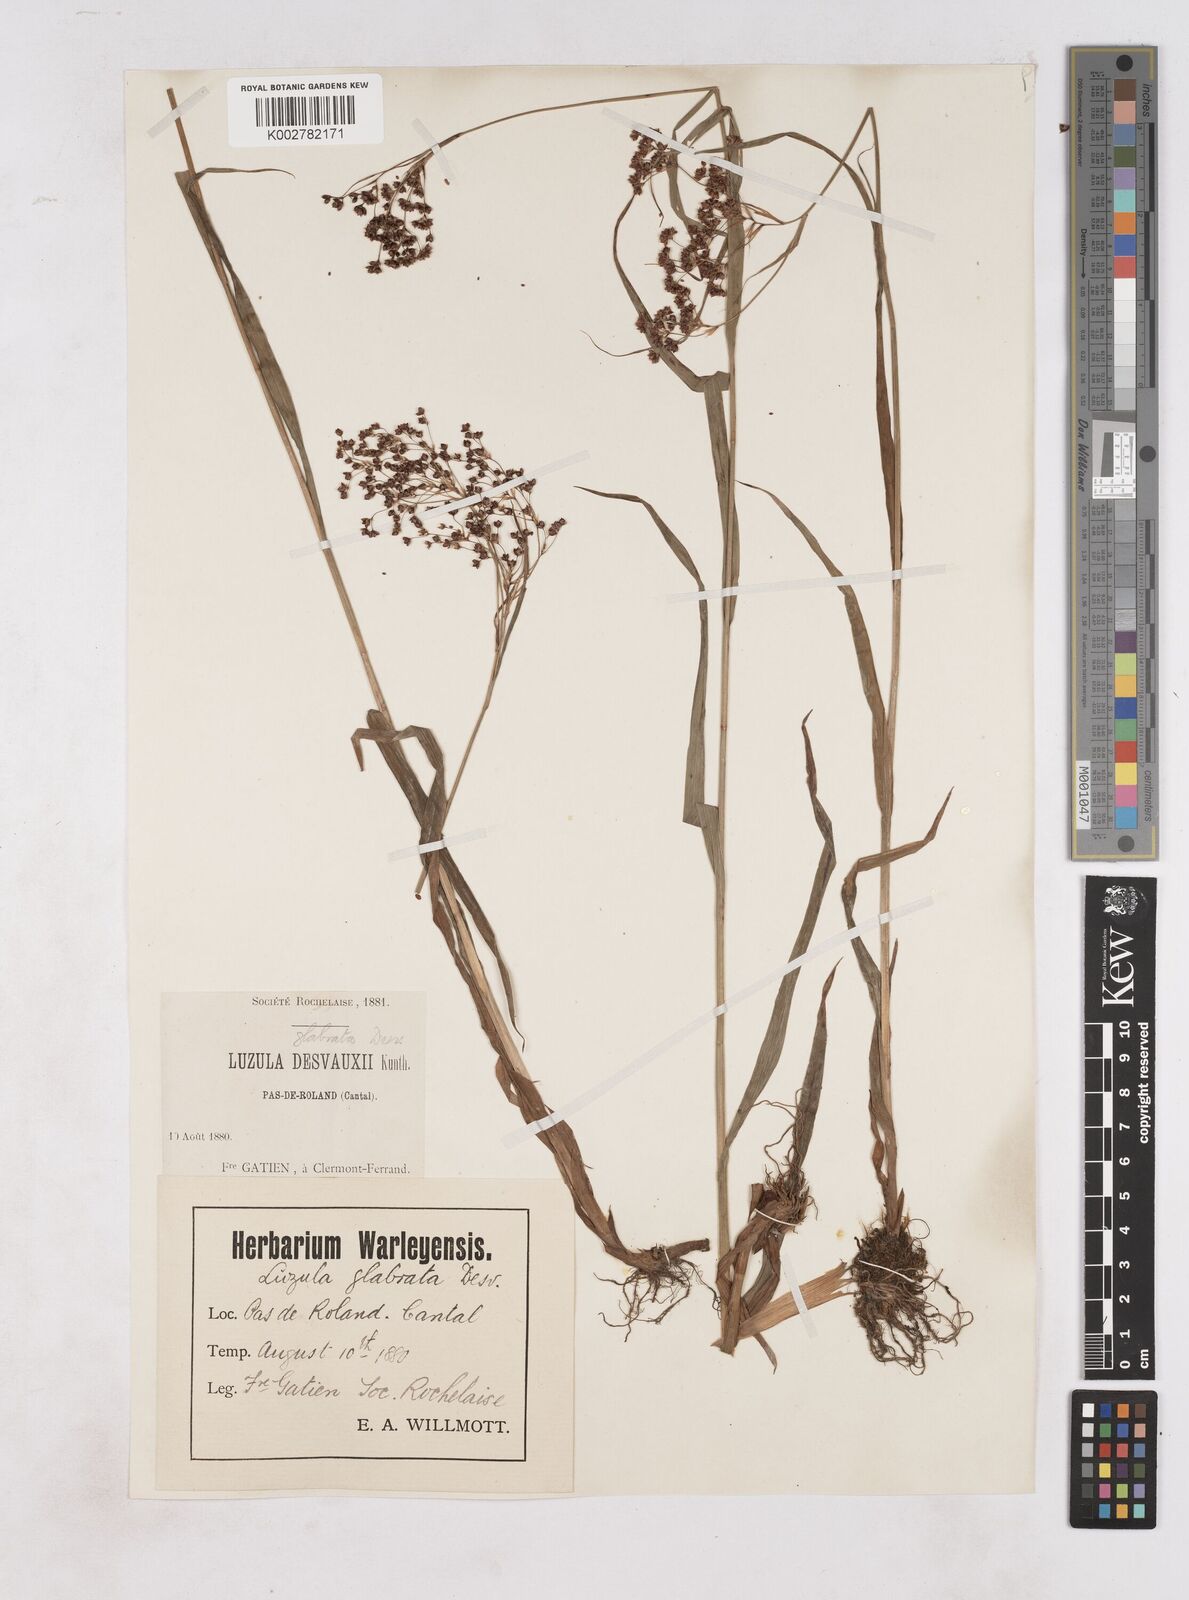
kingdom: Plantae
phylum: Tracheophyta
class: Liliopsida
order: Poales
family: Juncaceae
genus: Luzula
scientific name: Luzula glabrata
